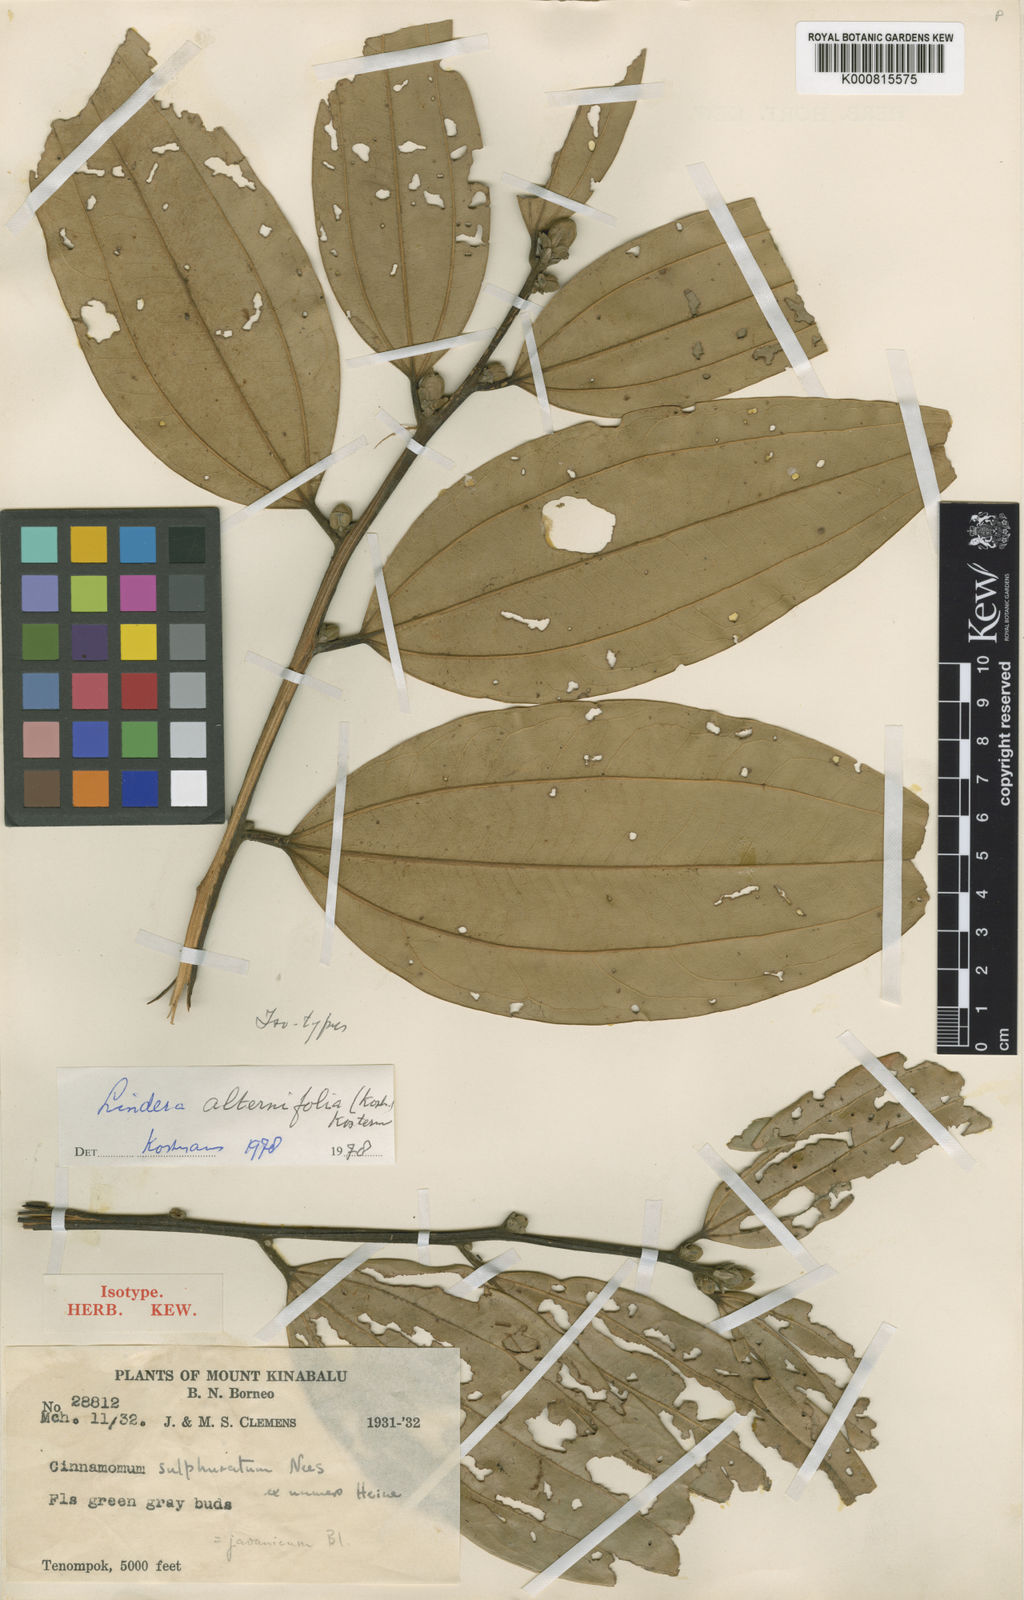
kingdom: Plantae
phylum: Tracheophyta
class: Magnoliopsida
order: Laurales
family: Lauraceae
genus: Lindera
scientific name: Lindera
